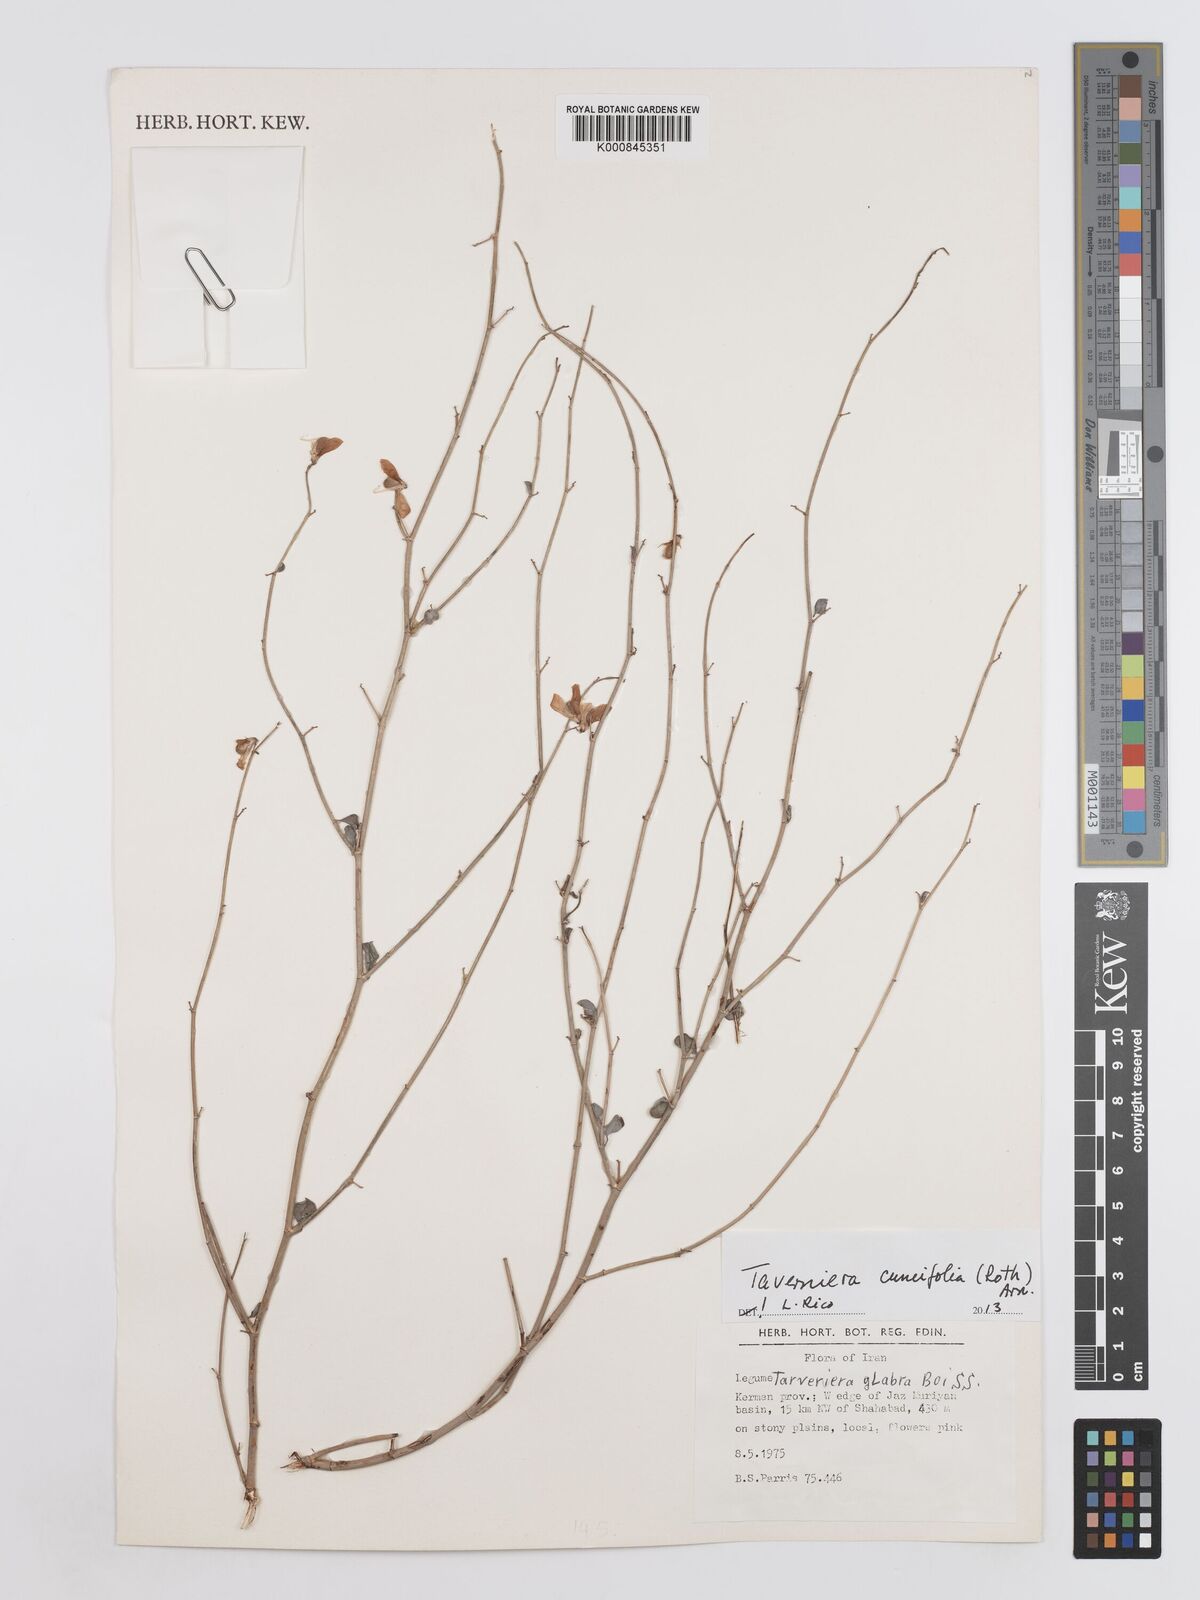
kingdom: Plantae
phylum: Tracheophyta
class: Magnoliopsida
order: Fabales
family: Fabaceae
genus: Taverniera
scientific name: Taverniera cuneifolia
